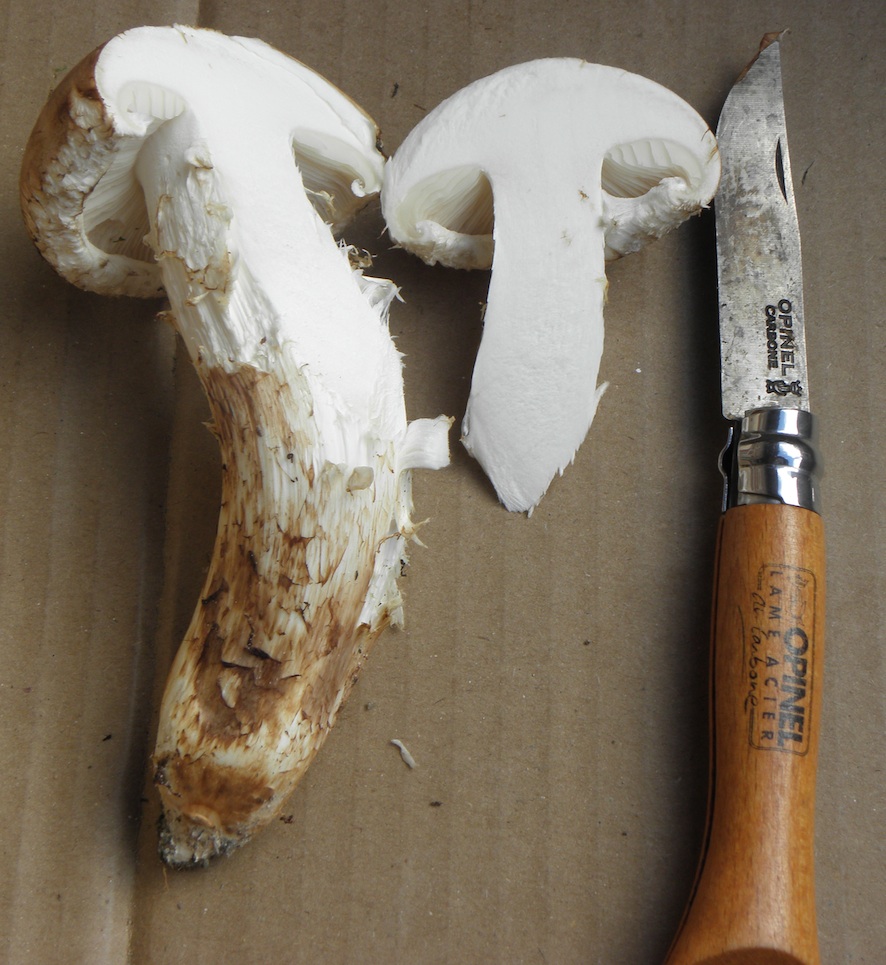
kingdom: Fungi
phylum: Basidiomycota
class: Agaricomycetes
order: Agaricales
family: Tricholomataceae
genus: Tricholoma
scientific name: Tricholoma matsutake
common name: duft-ridderhat
